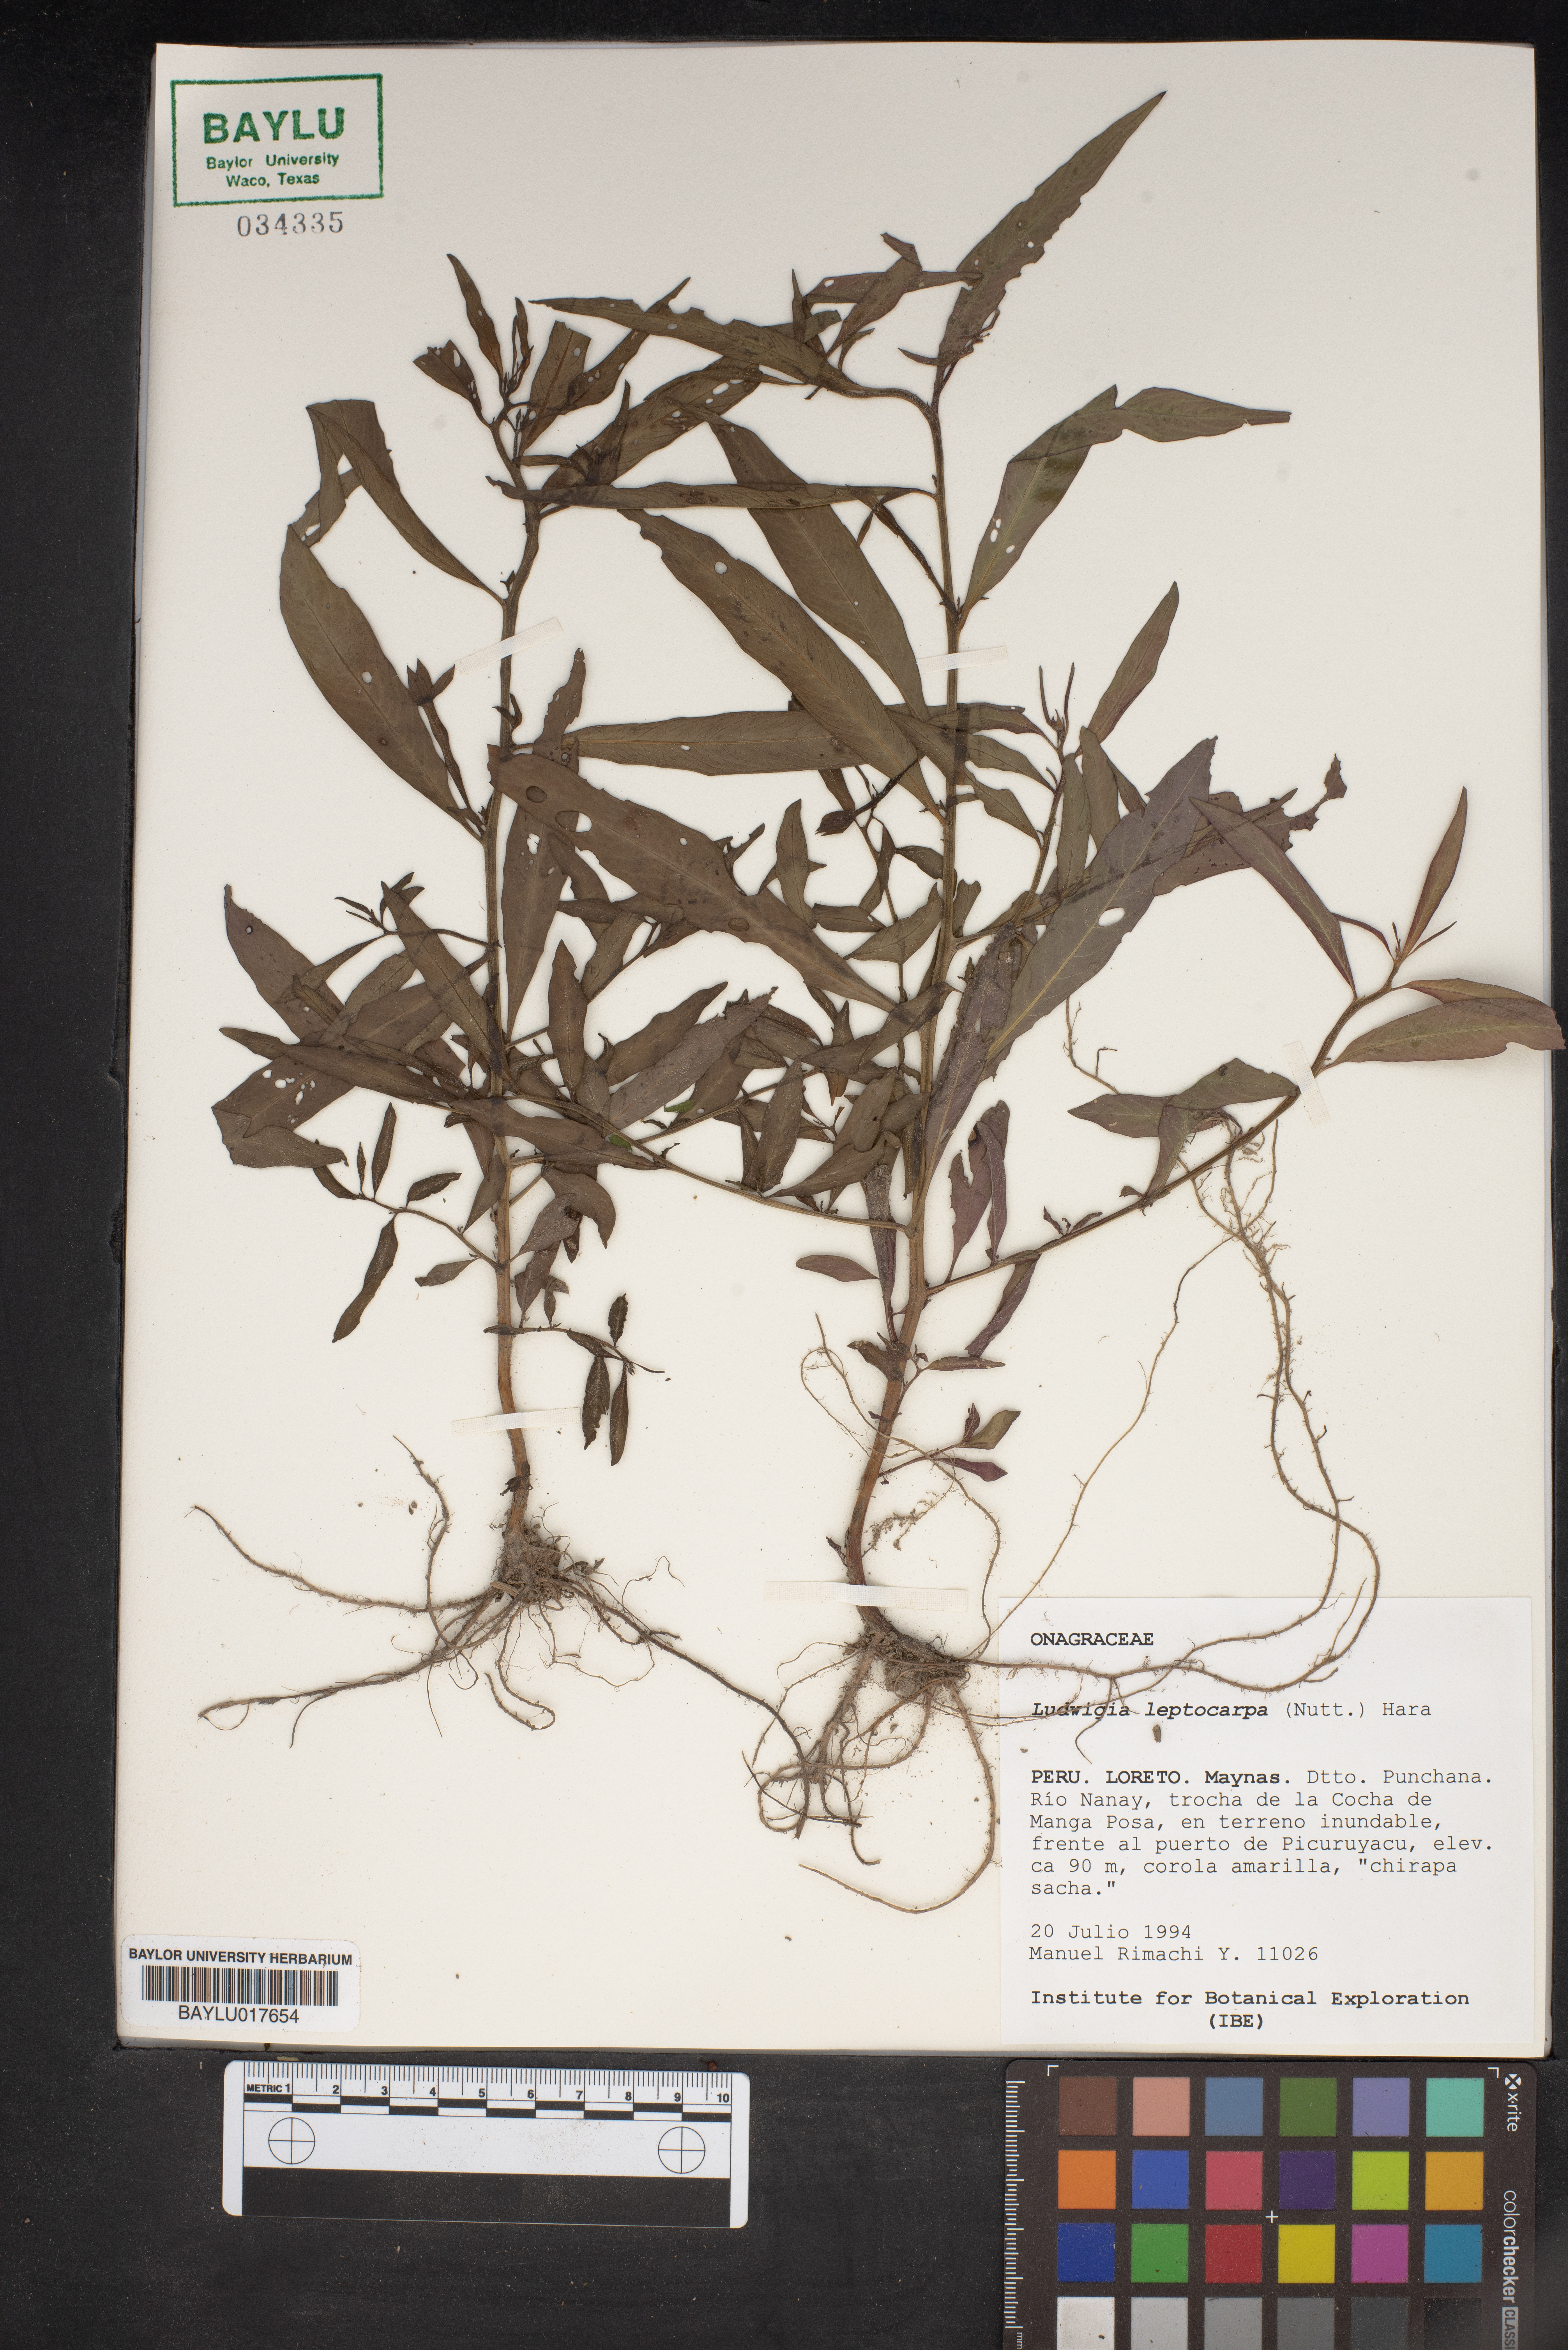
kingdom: Plantae
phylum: Tracheophyta
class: Magnoliopsida
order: Myrtales
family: Onagraceae
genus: Ludwigia
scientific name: Ludwigia leptocarpa
